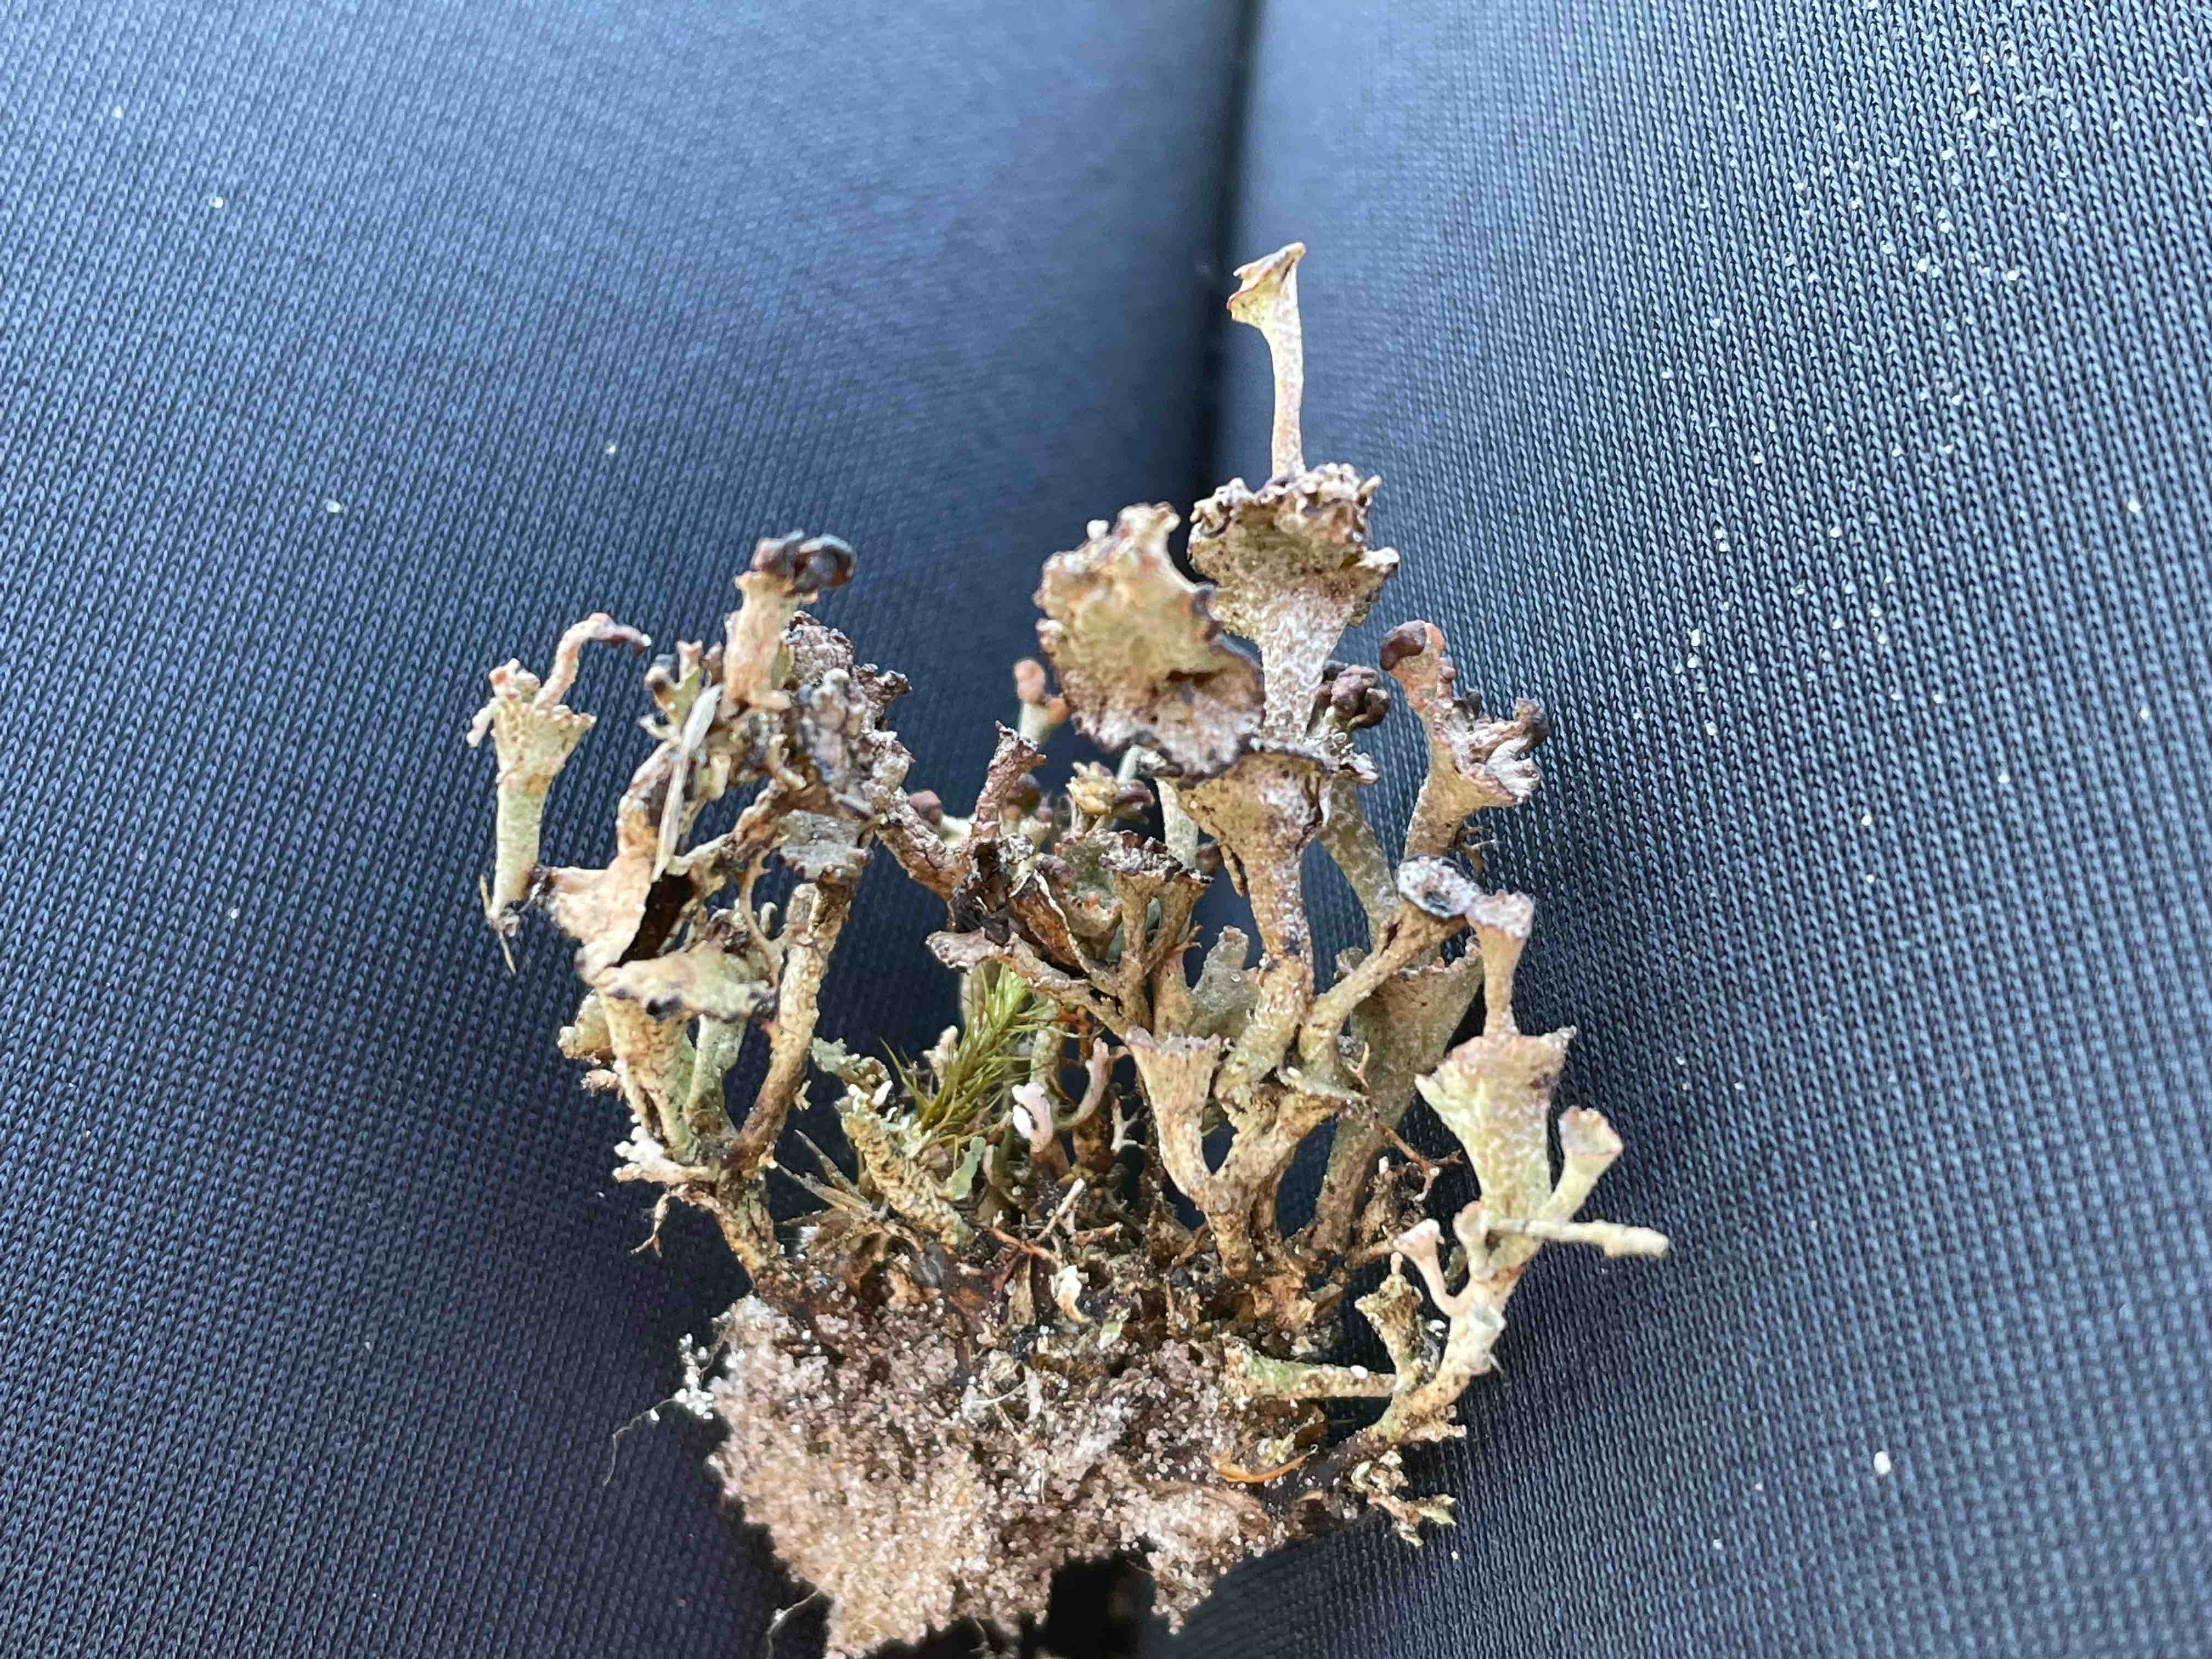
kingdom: Fungi
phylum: Ascomycota
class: Lecanoromycetes
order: Lecanorales
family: Cladoniaceae
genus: Cladonia
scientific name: Cladonia cervicornis
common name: etage-bægerlav
